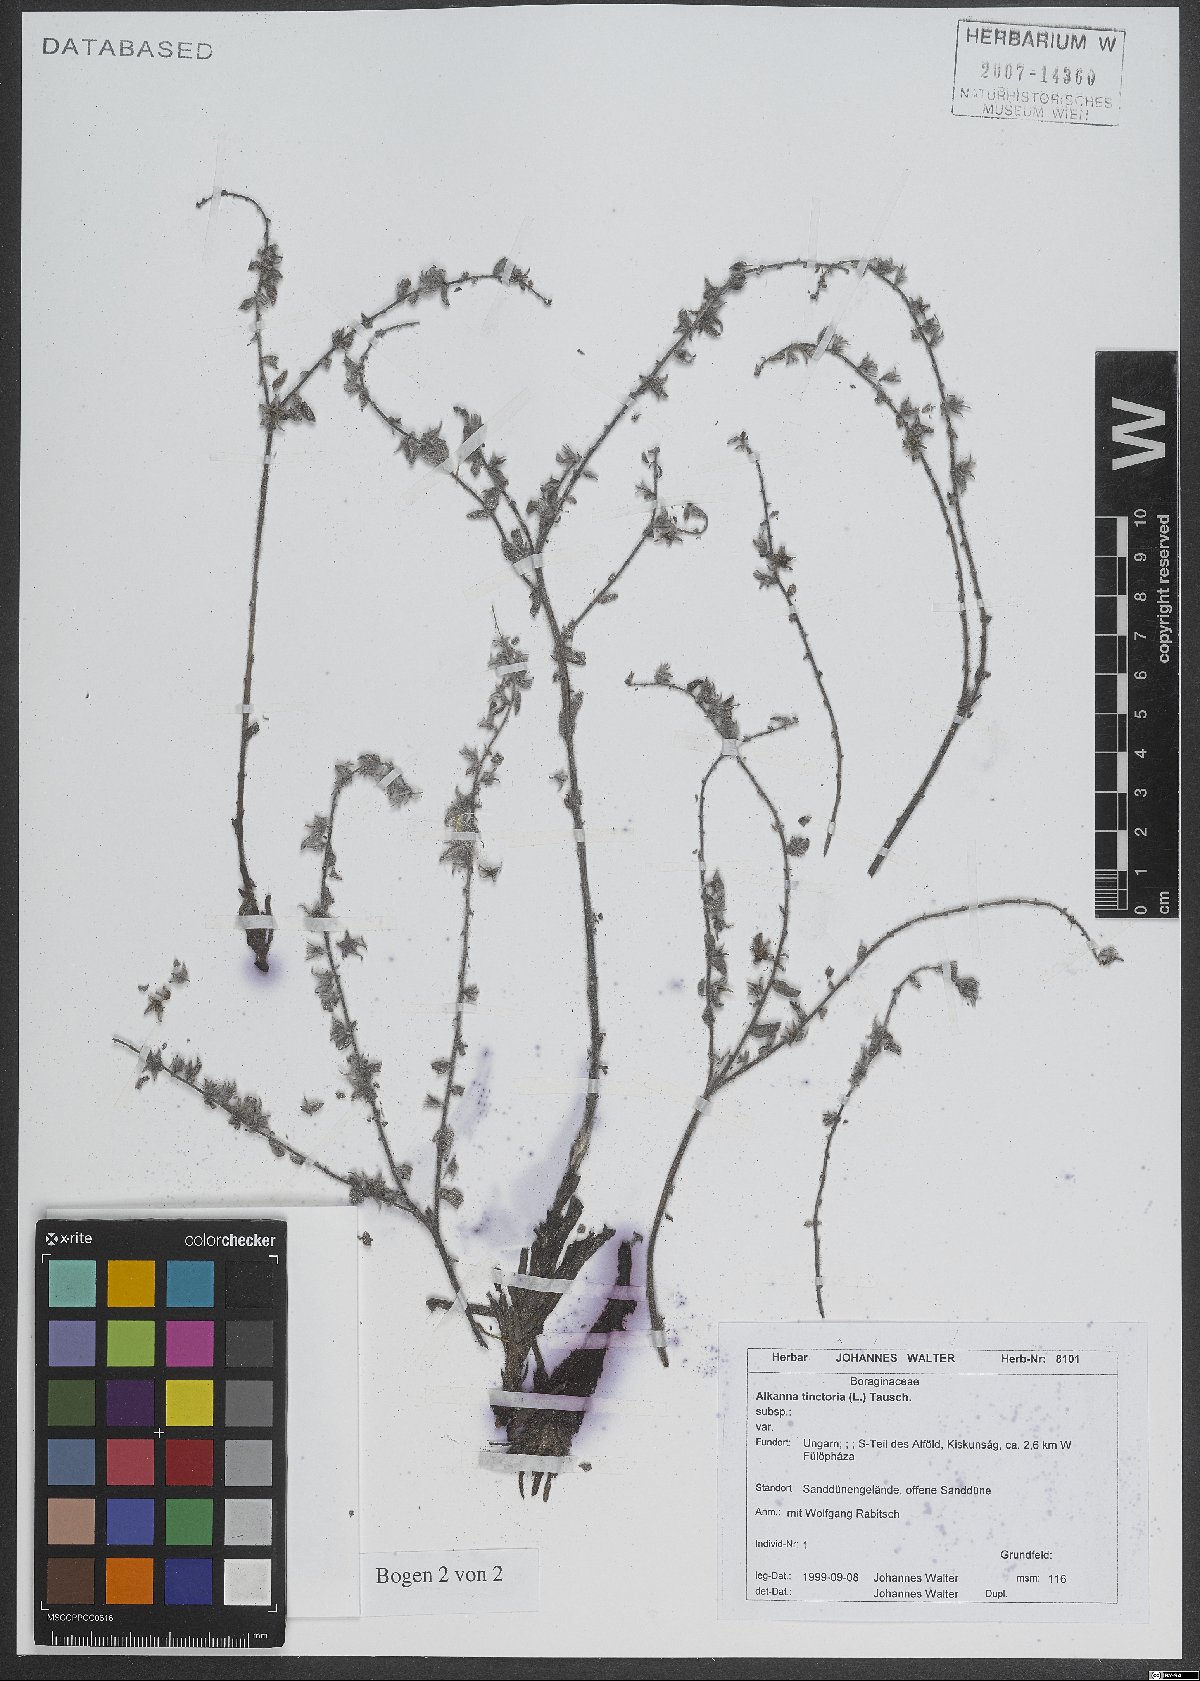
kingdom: Plantae
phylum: Tracheophyta
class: Magnoliopsida
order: Boraginales
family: Boraginaceae
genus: Alkanna
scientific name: Alkanna tinctoria
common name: Dyer's-alkanet
